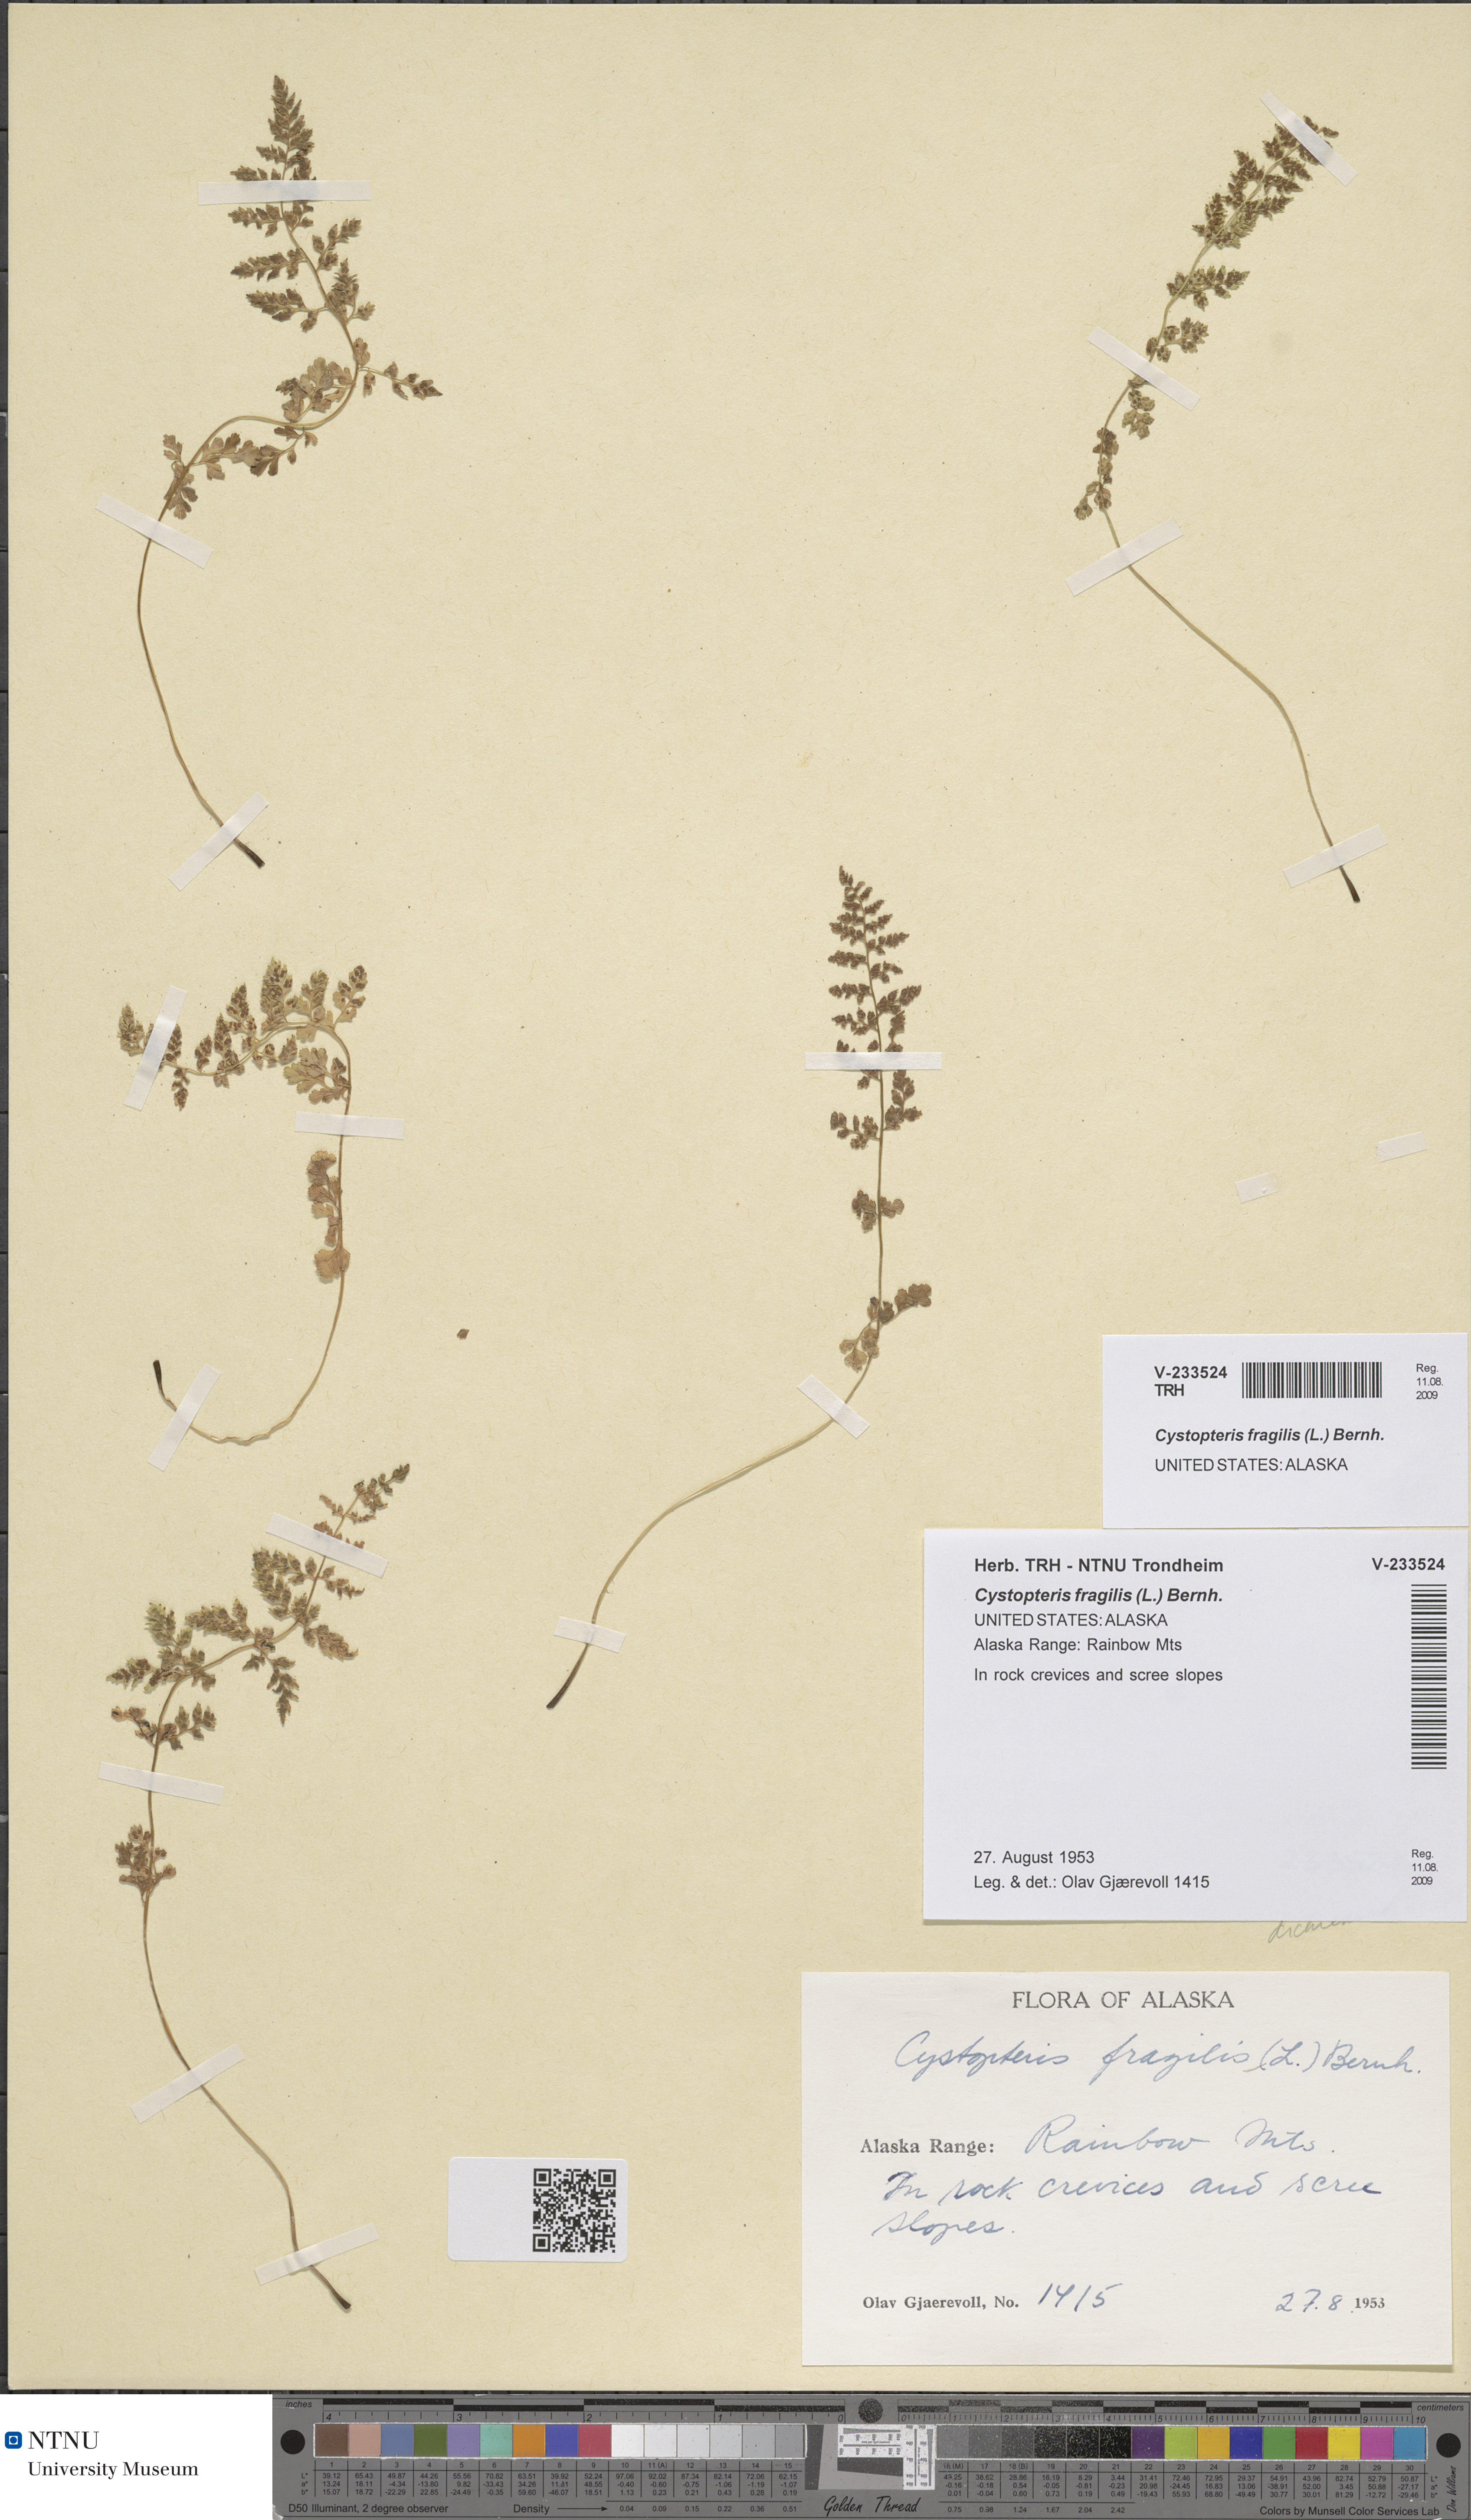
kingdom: Plantae
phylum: Tracheophyta
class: Polypodiopsida
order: Polypodiales
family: Cystopteridaceae
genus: Cystopteris
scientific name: Cystopteris fragilis
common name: Brittle bladder fern
